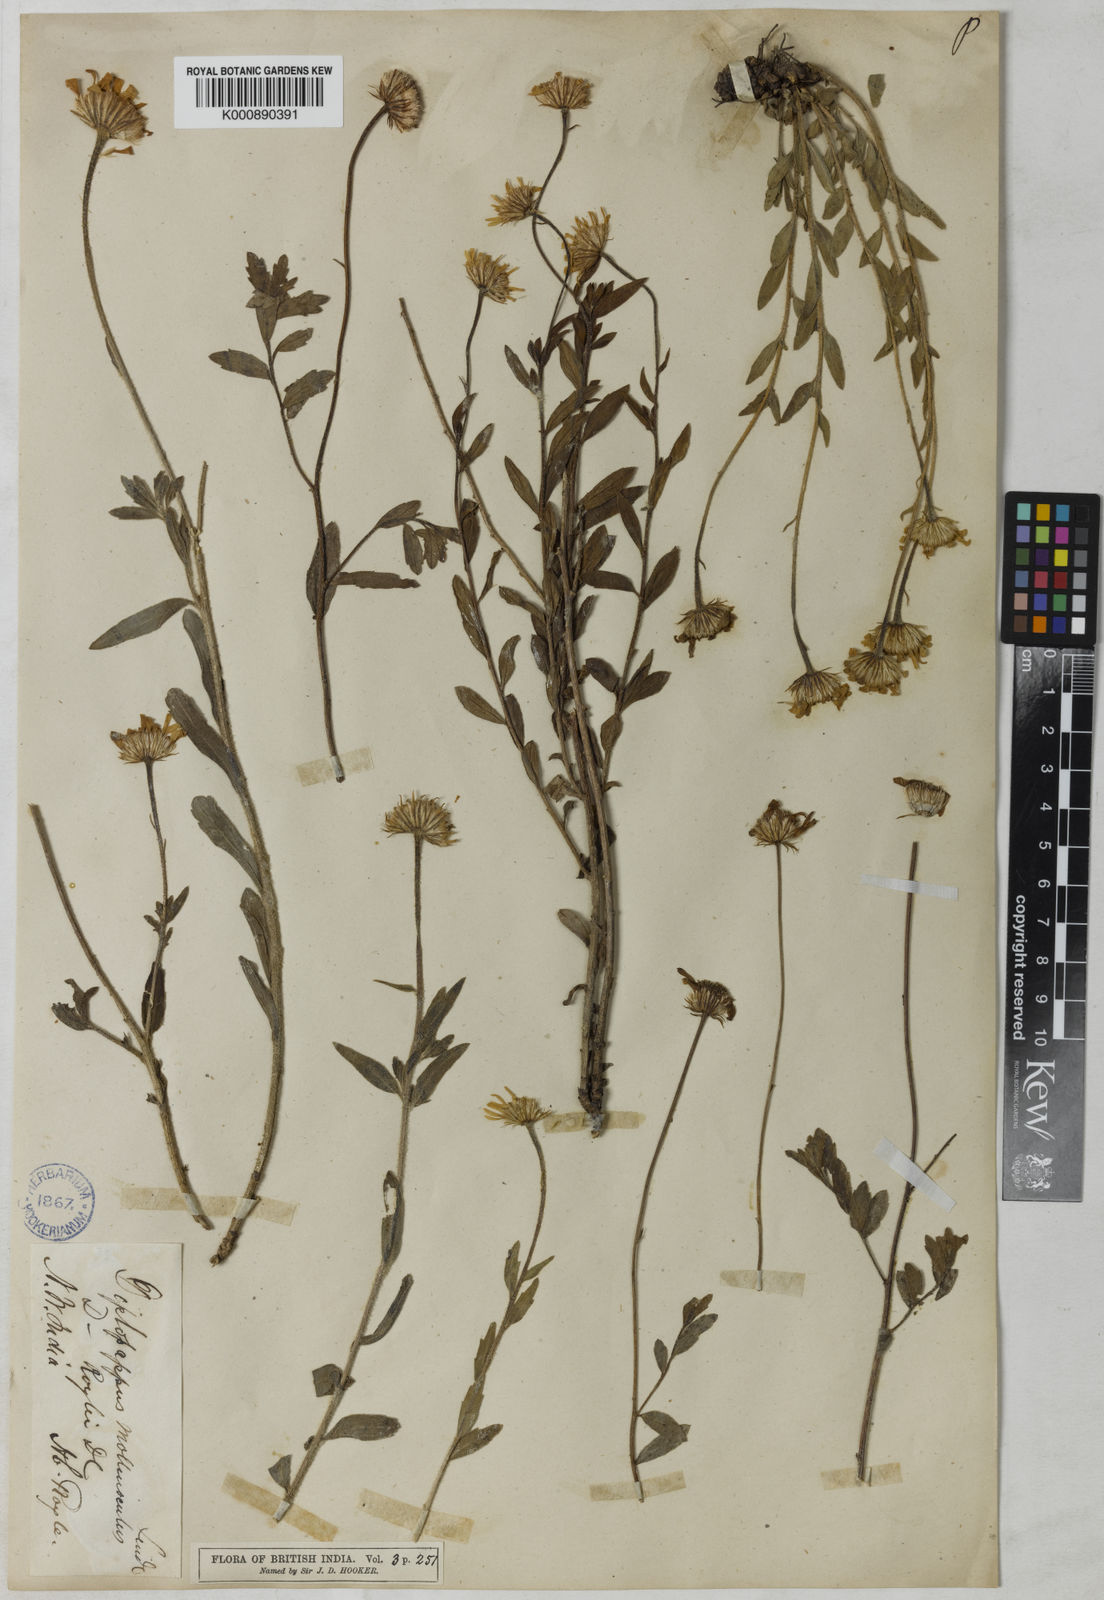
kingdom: Plantae
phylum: Tracheophyta
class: Magnoliopsida
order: Asterales
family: Asteraceae
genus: Aster
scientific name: Aster molliusculus
